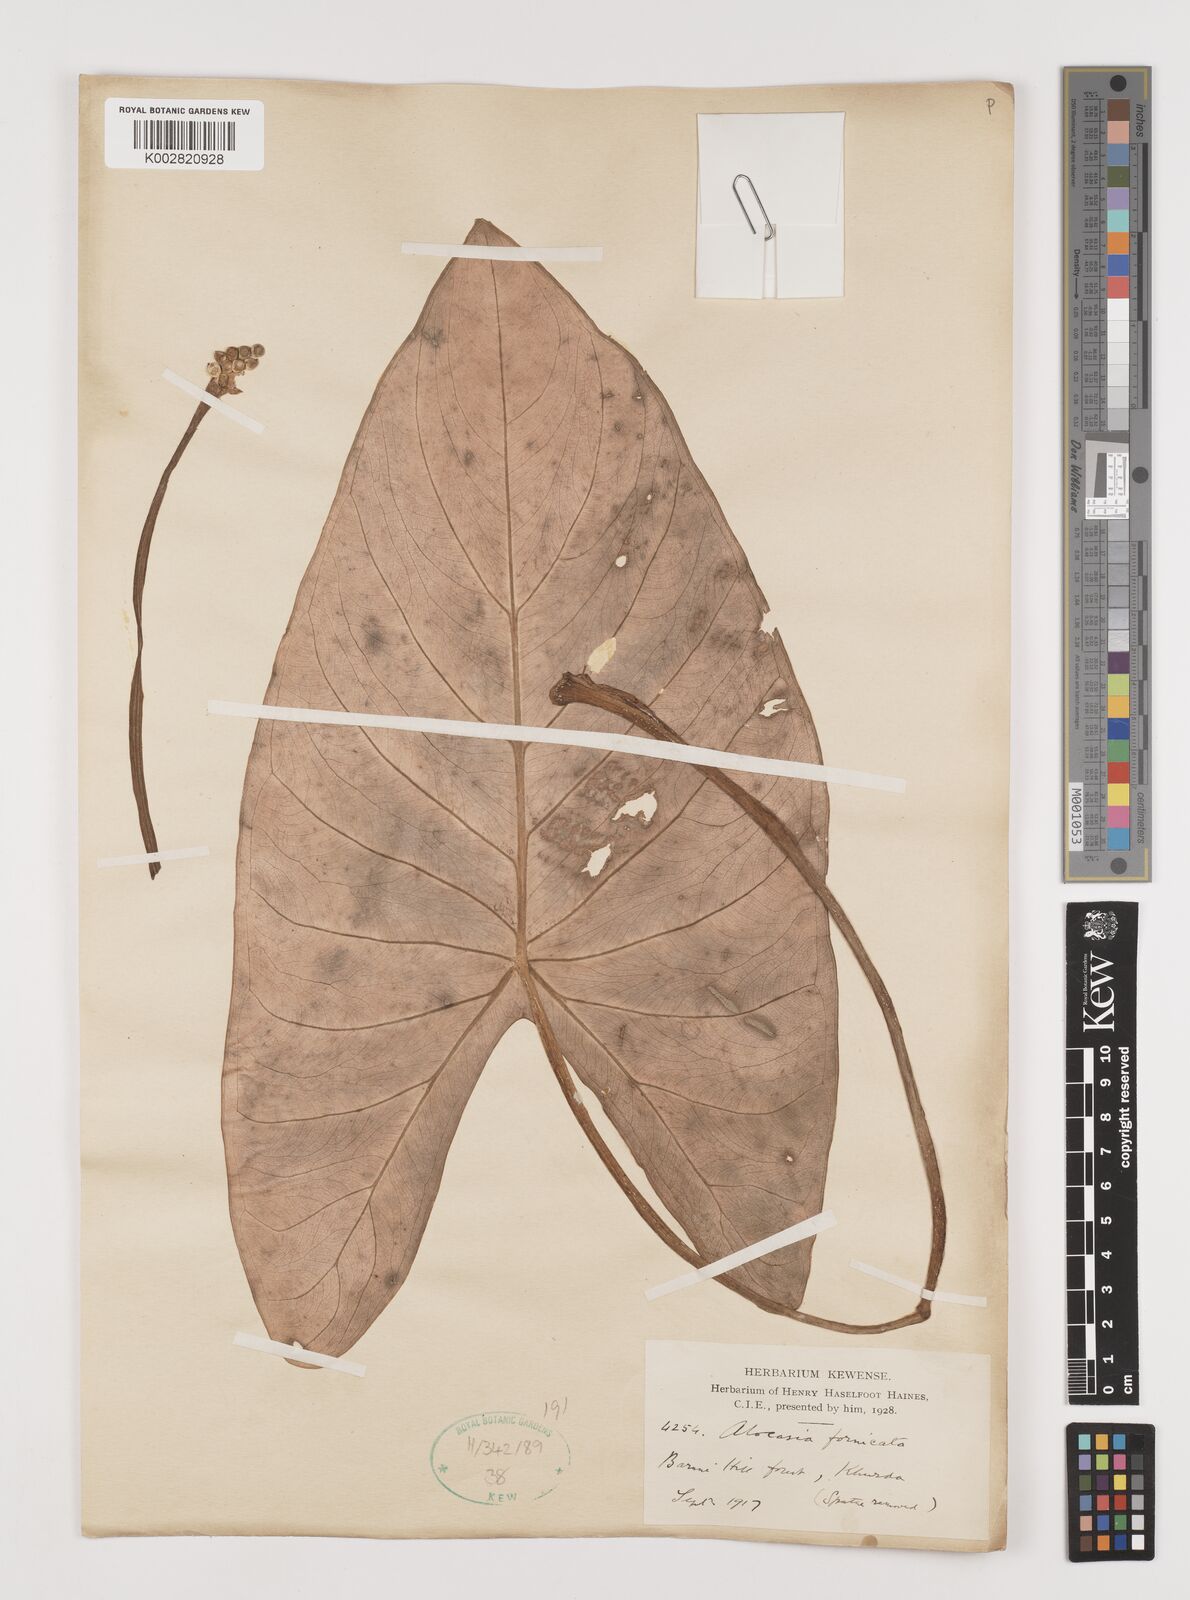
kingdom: Plantae
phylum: Tracheophyta
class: Liliopsida
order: Alismatales
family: Araceae
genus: Alocasia
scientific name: Alocasia fornicata
